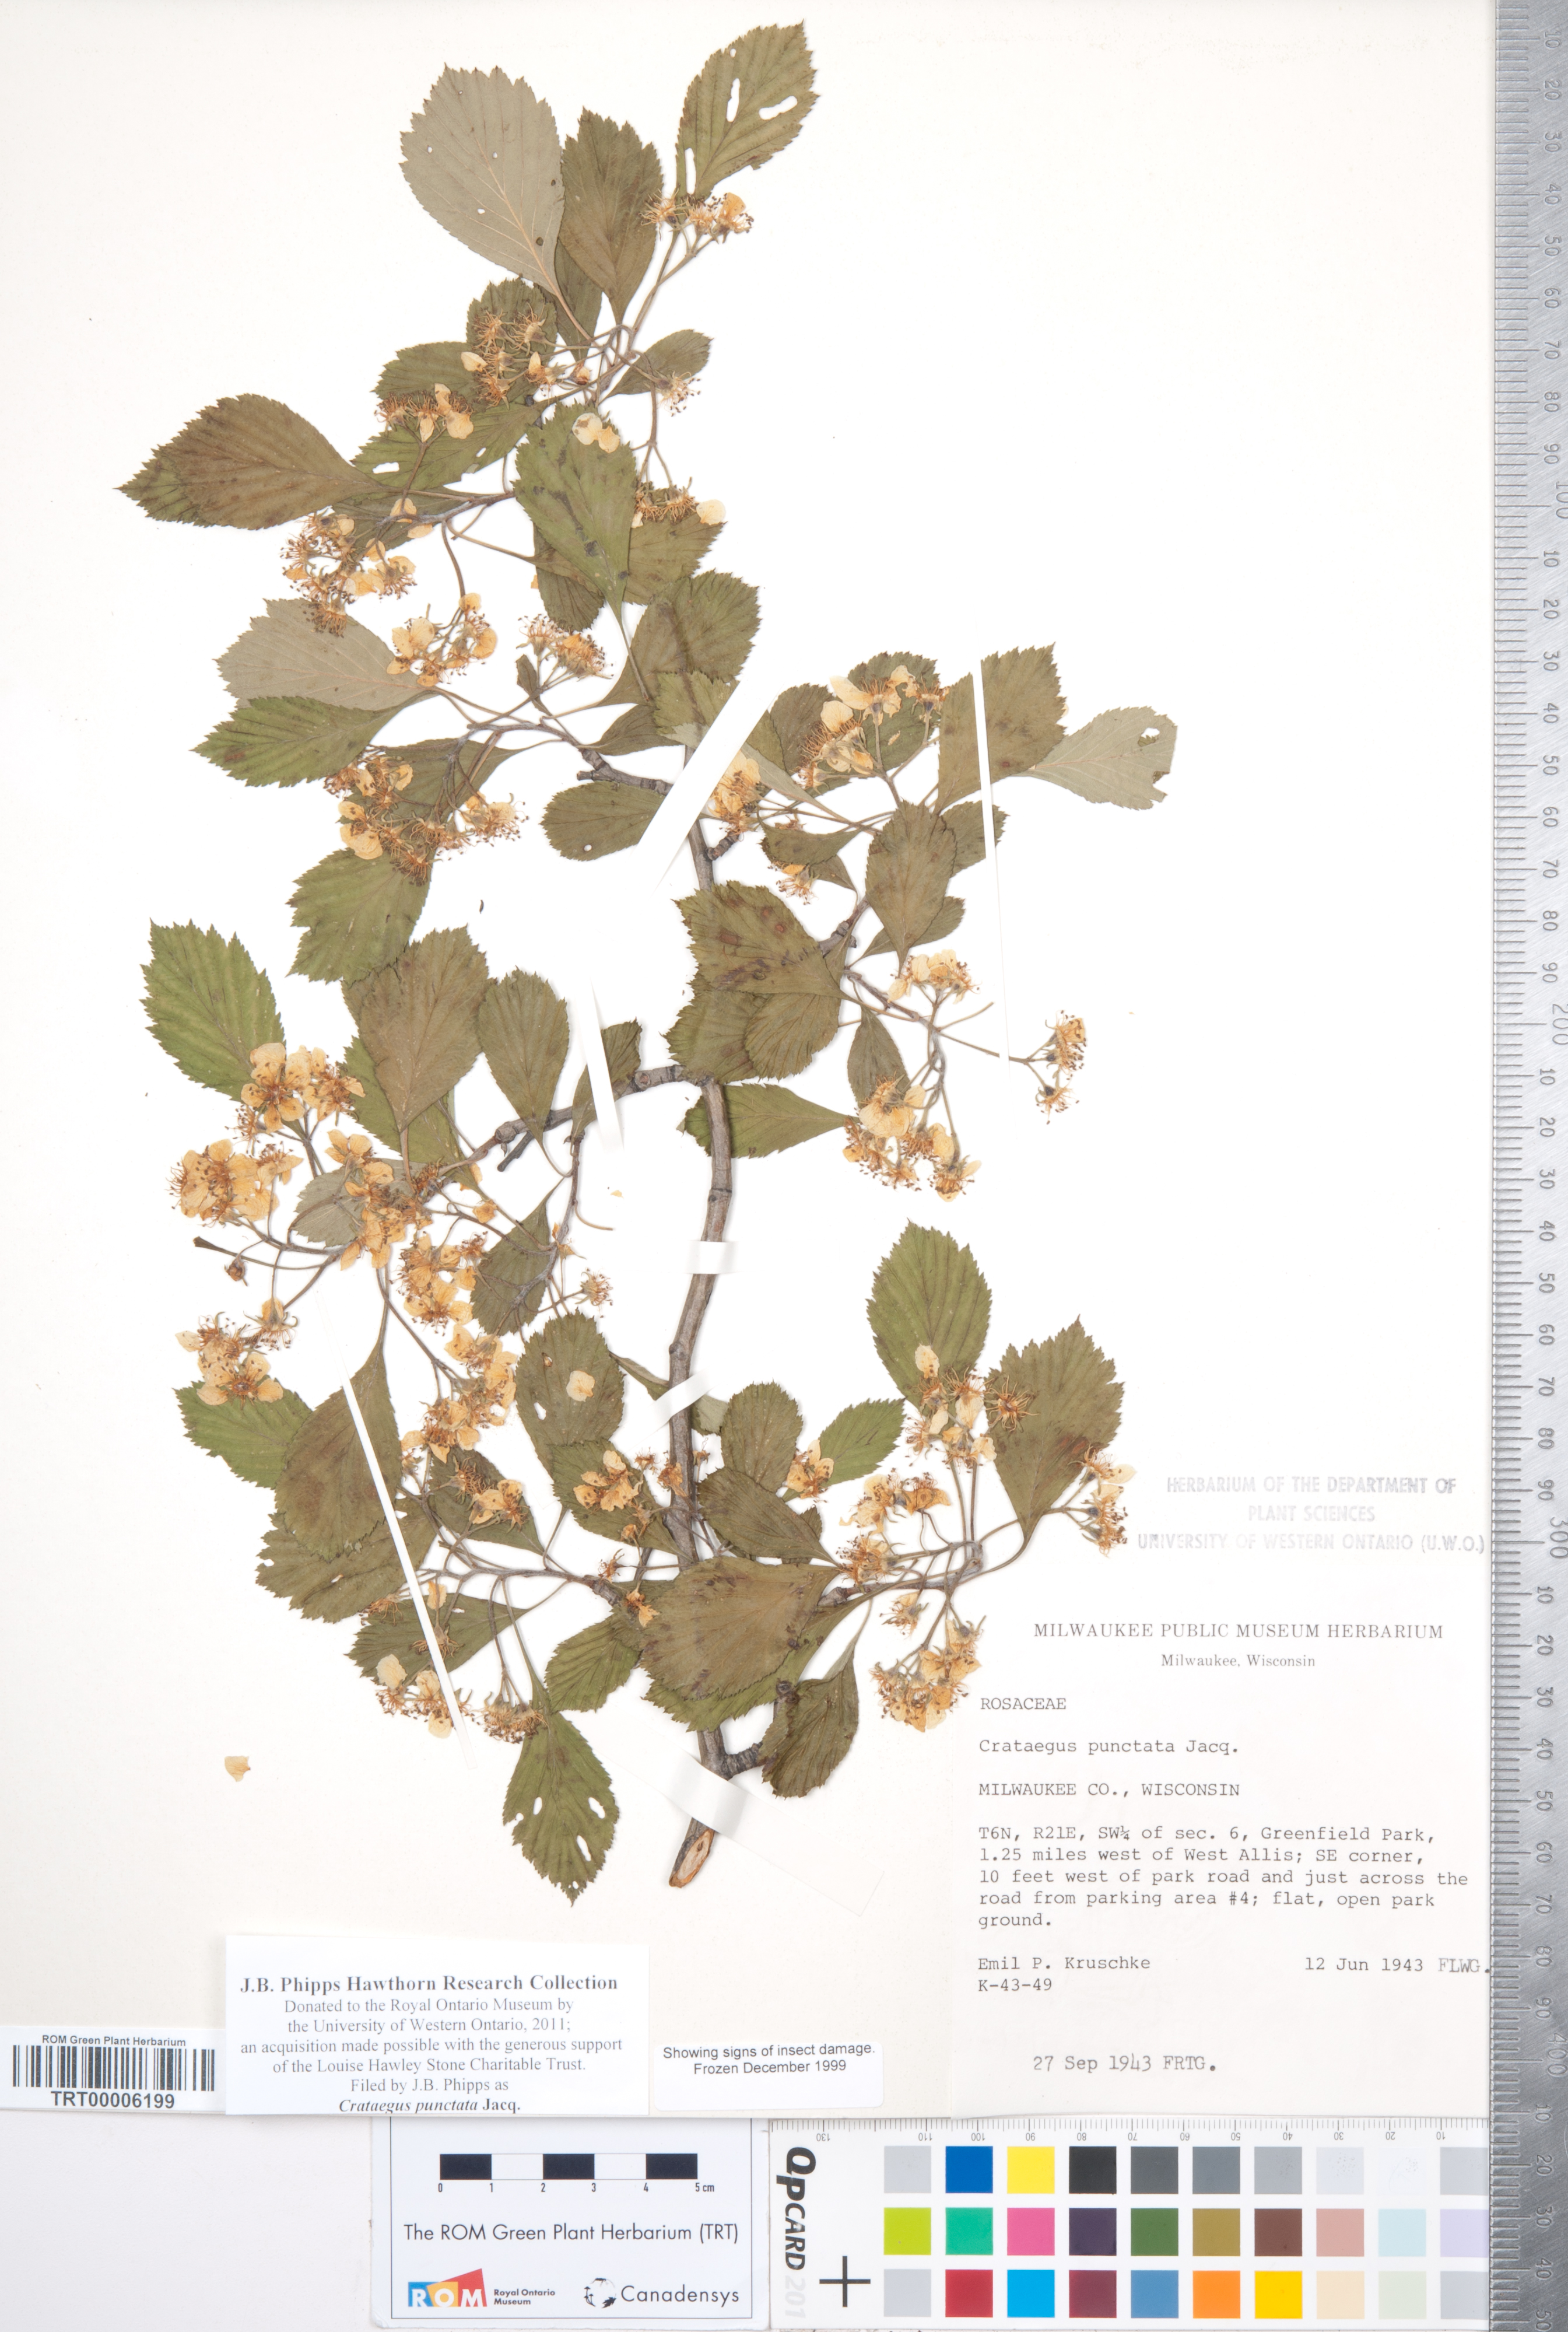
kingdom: Plantae
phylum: Tracheophyta
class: Magnoliopsida
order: Rosales
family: Rosaceae
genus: Crataegus
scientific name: Crataegus punctata
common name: Dotted hawthorn
